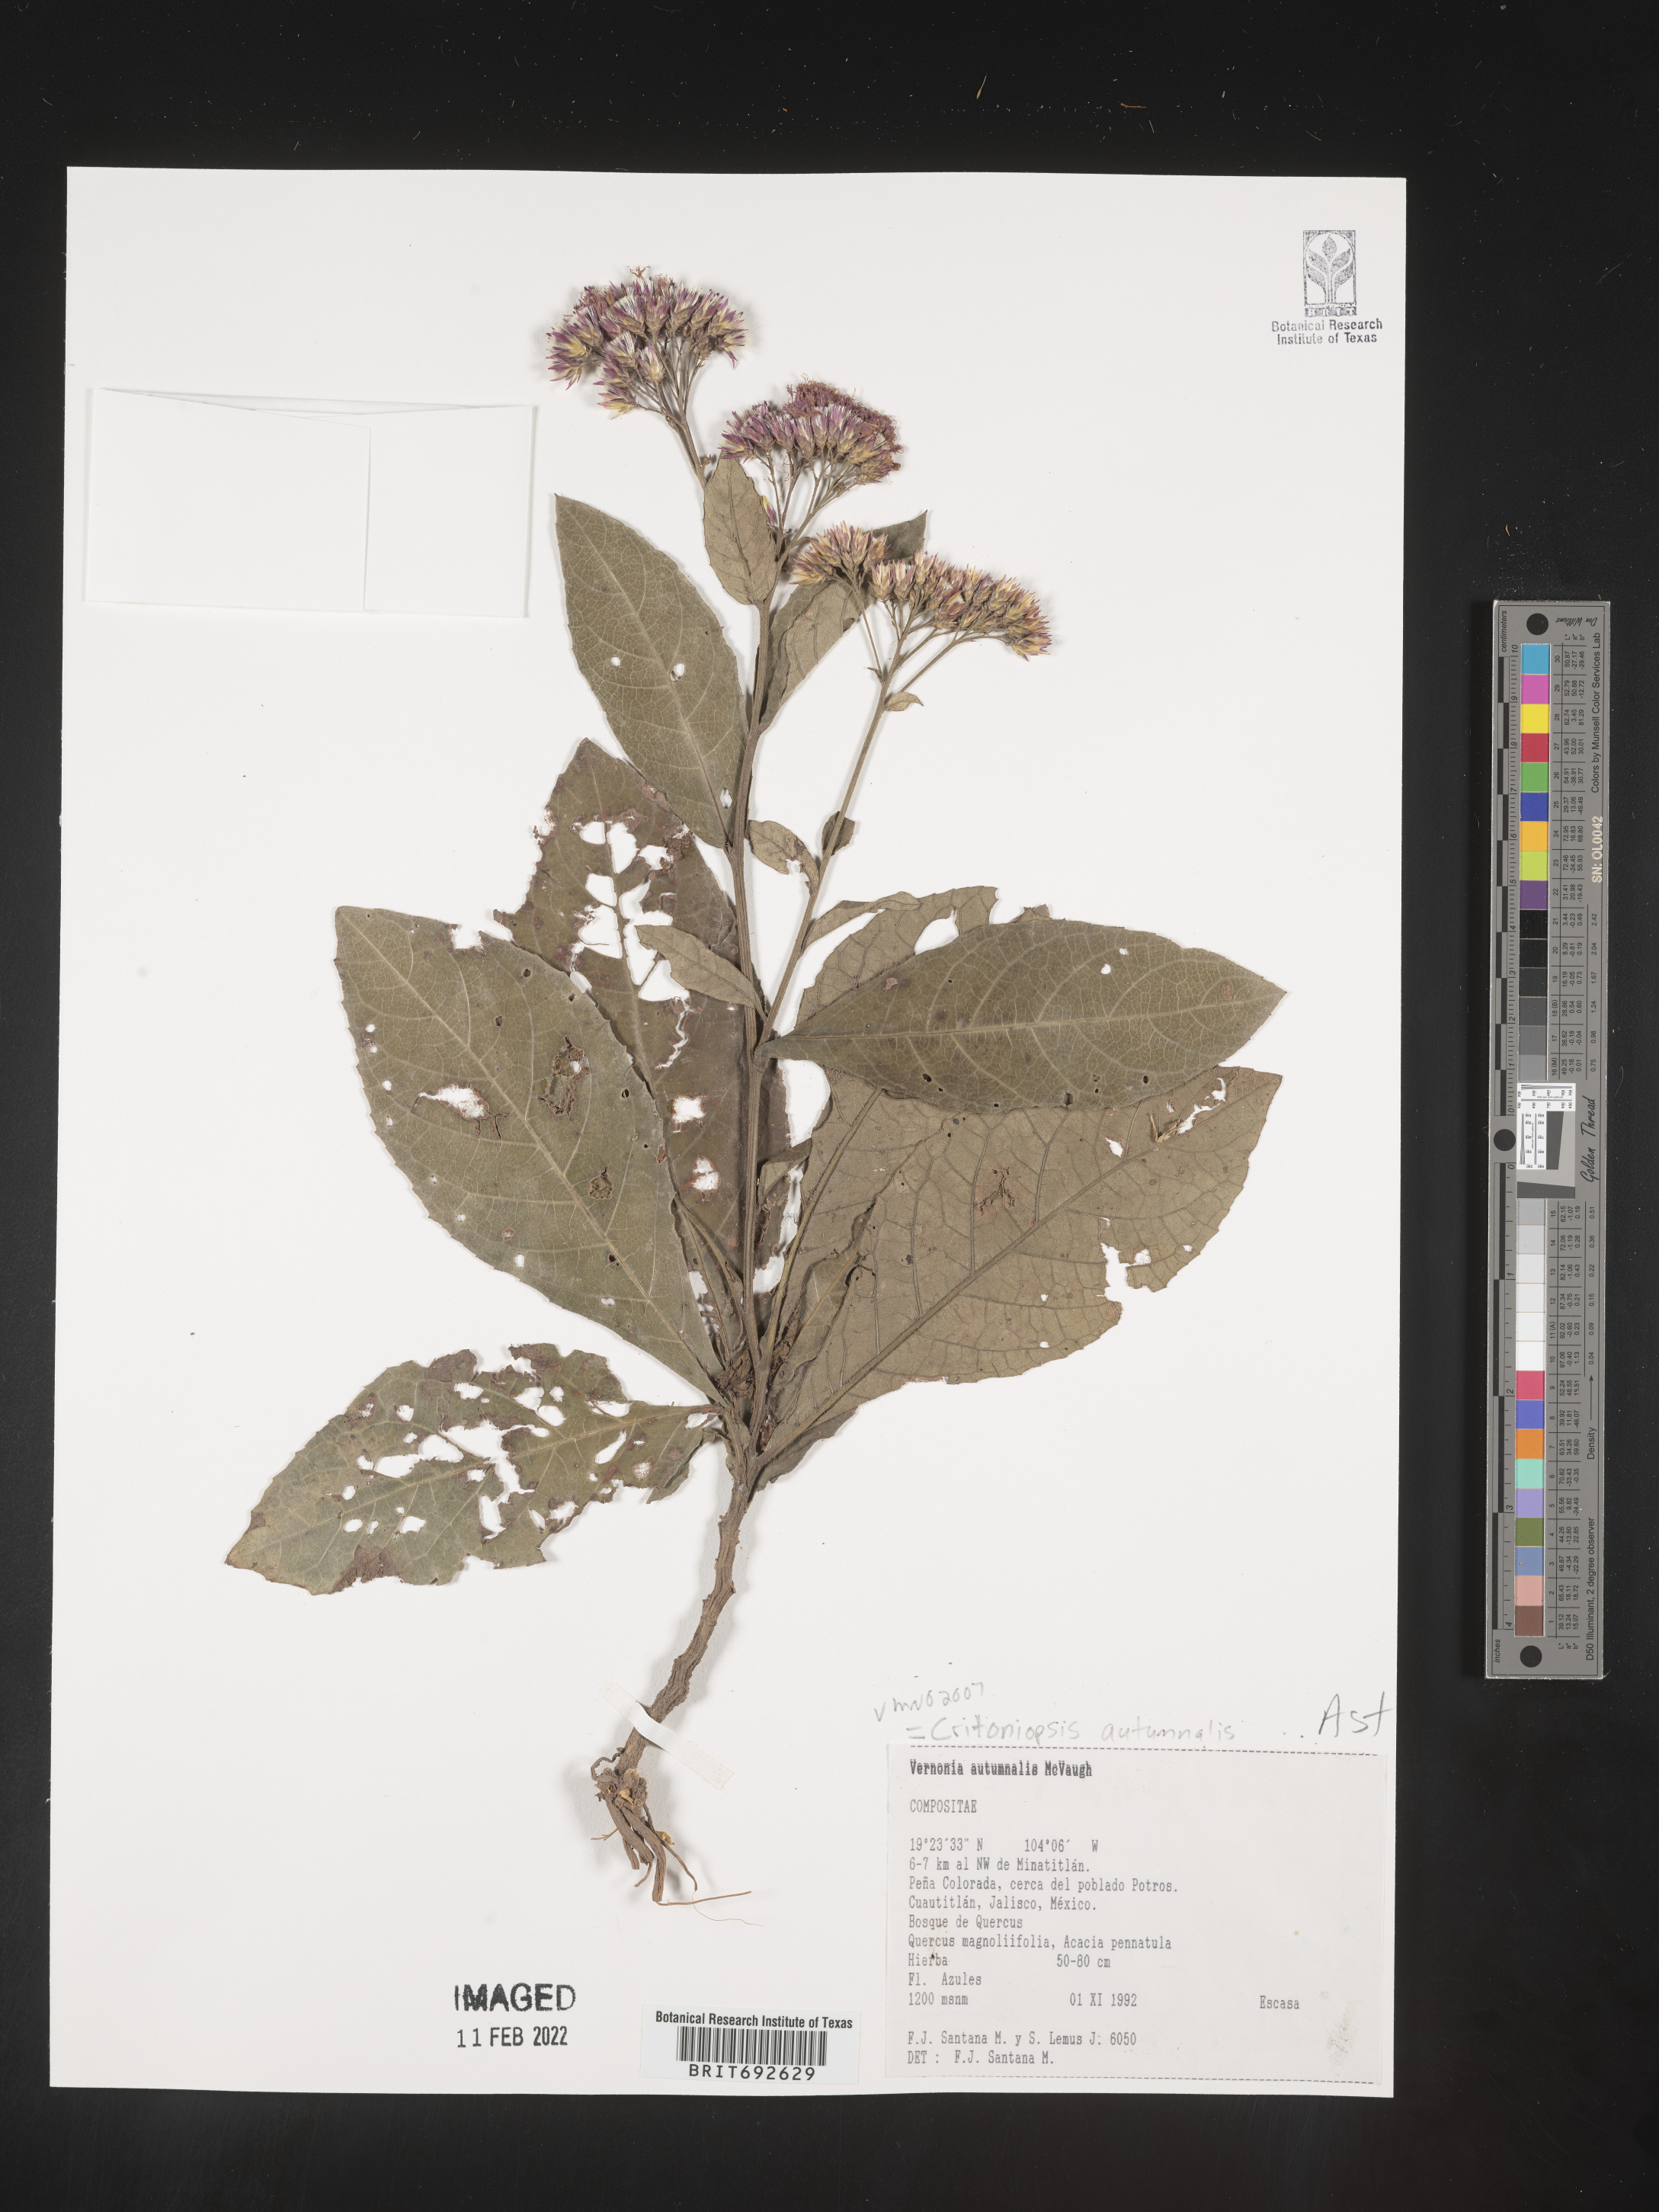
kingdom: Plantae
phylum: Tracheophyta
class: Magnoliopsida
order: Asterales
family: Asteraceae
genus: Critoniopsis
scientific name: Critoniopsis
